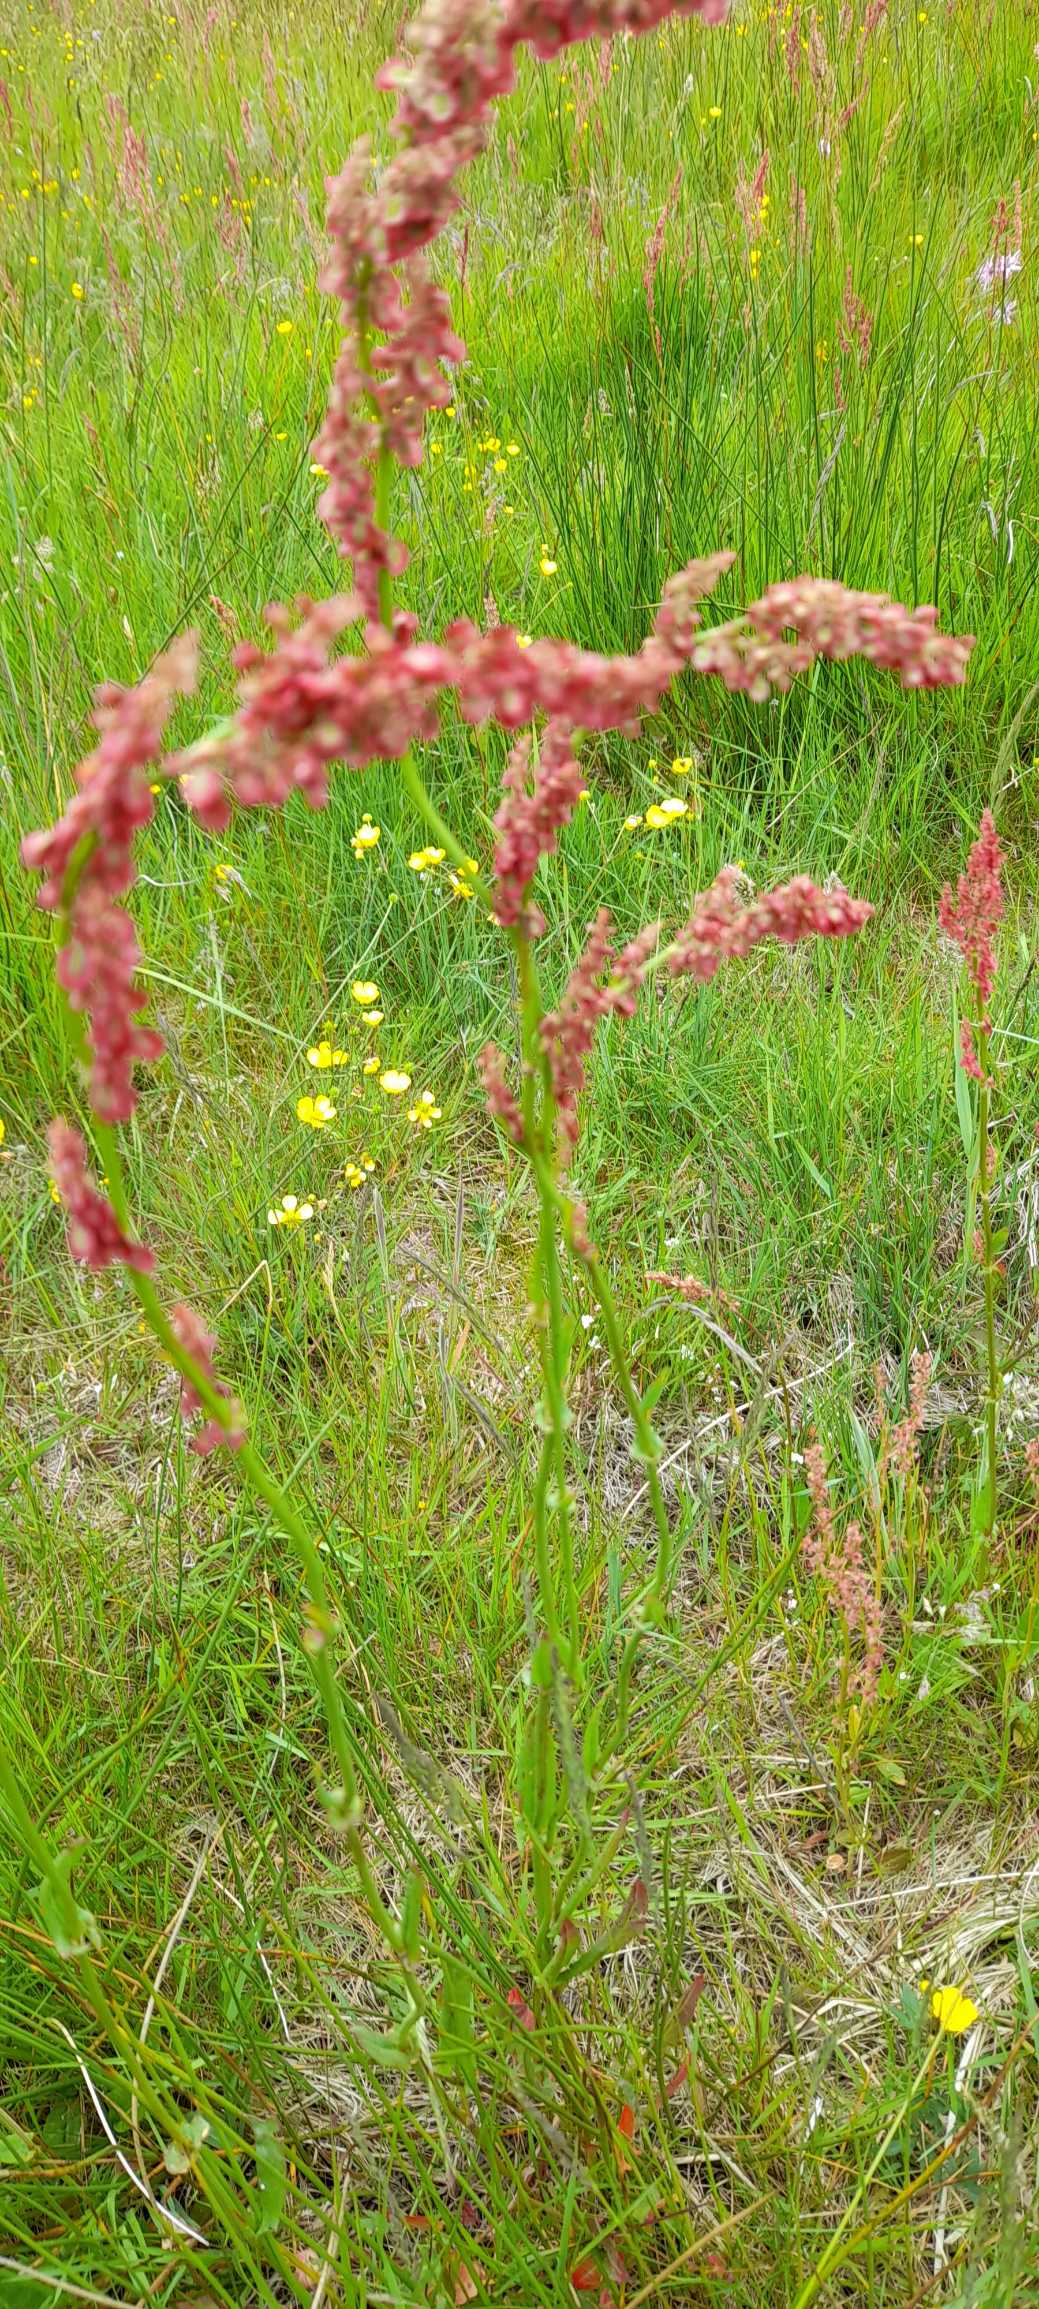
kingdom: Plantae
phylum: Tracheophyta
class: Magnoliopsida
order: Caryophyllales
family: Polygonaceae
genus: Rumex
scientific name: Rumex acetosa
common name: Almindelig syre
